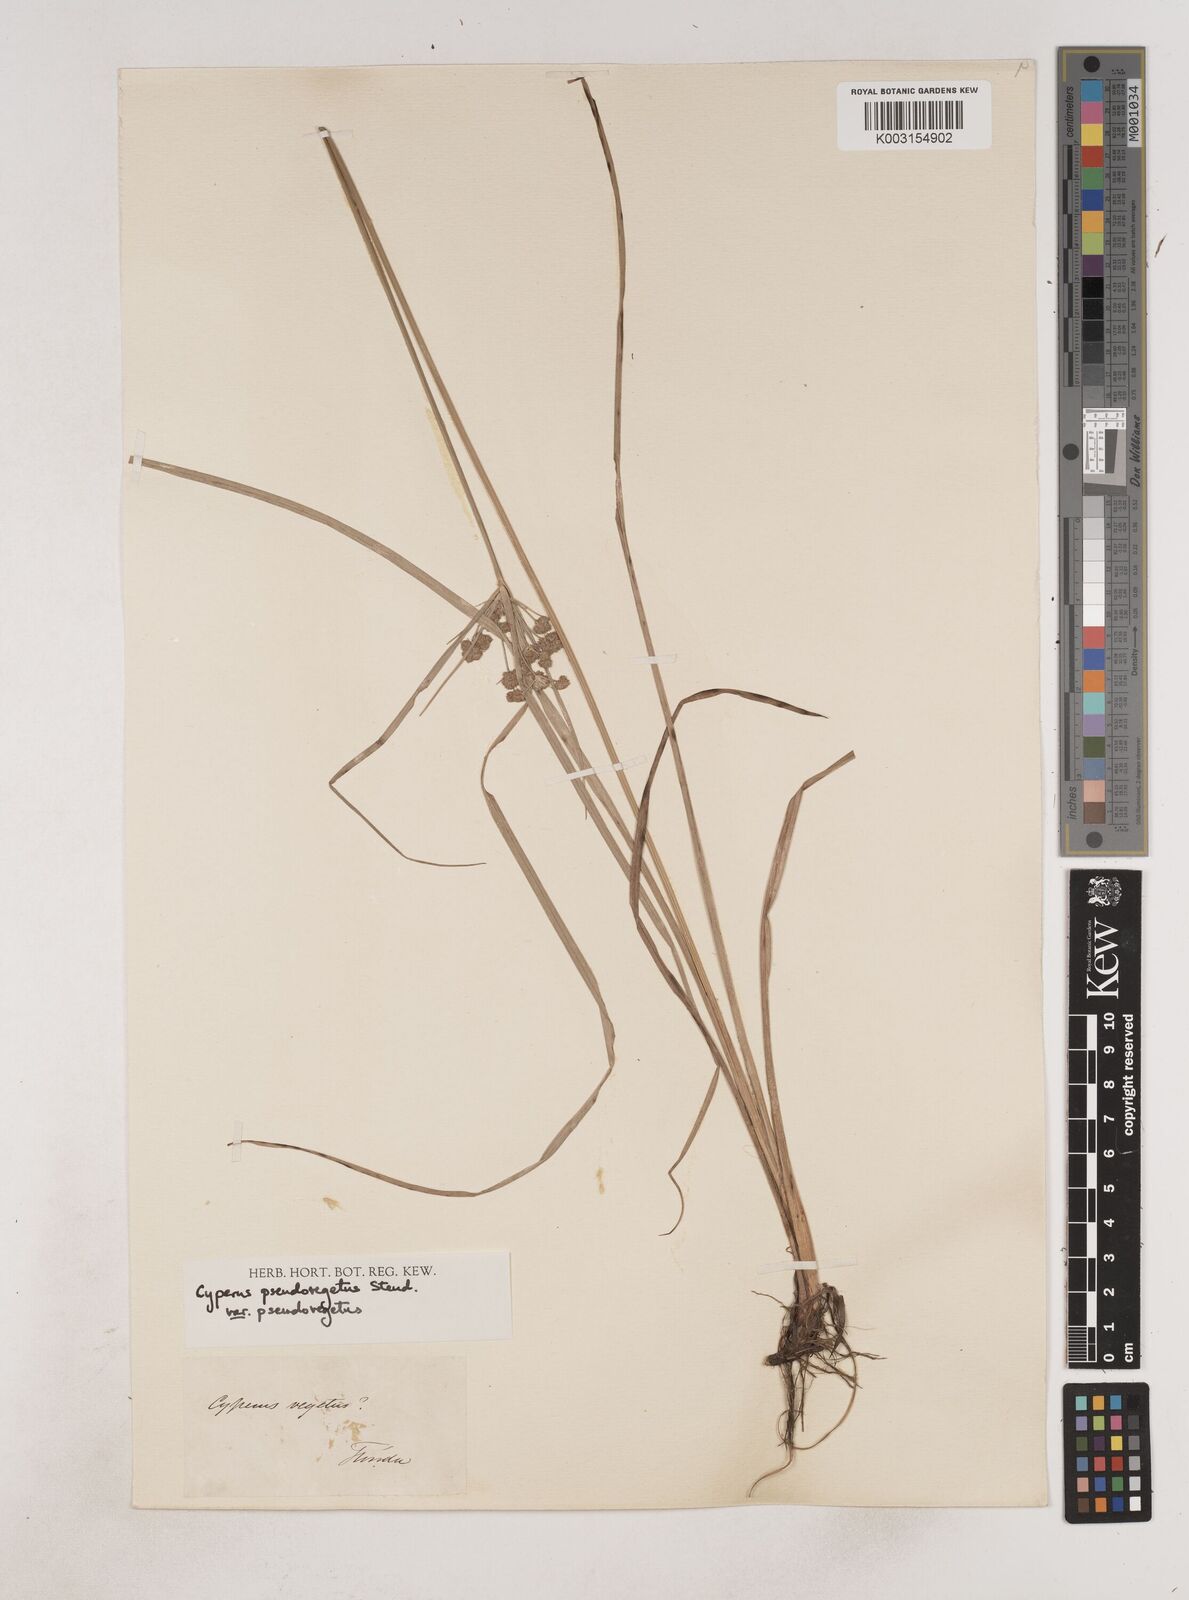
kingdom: Plantae
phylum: Tracheophyta
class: Liliopsida
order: Poales
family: Cyperaceae
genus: Cyperus
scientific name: Cyperus pseudovegetus
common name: Marsh flat sedge
